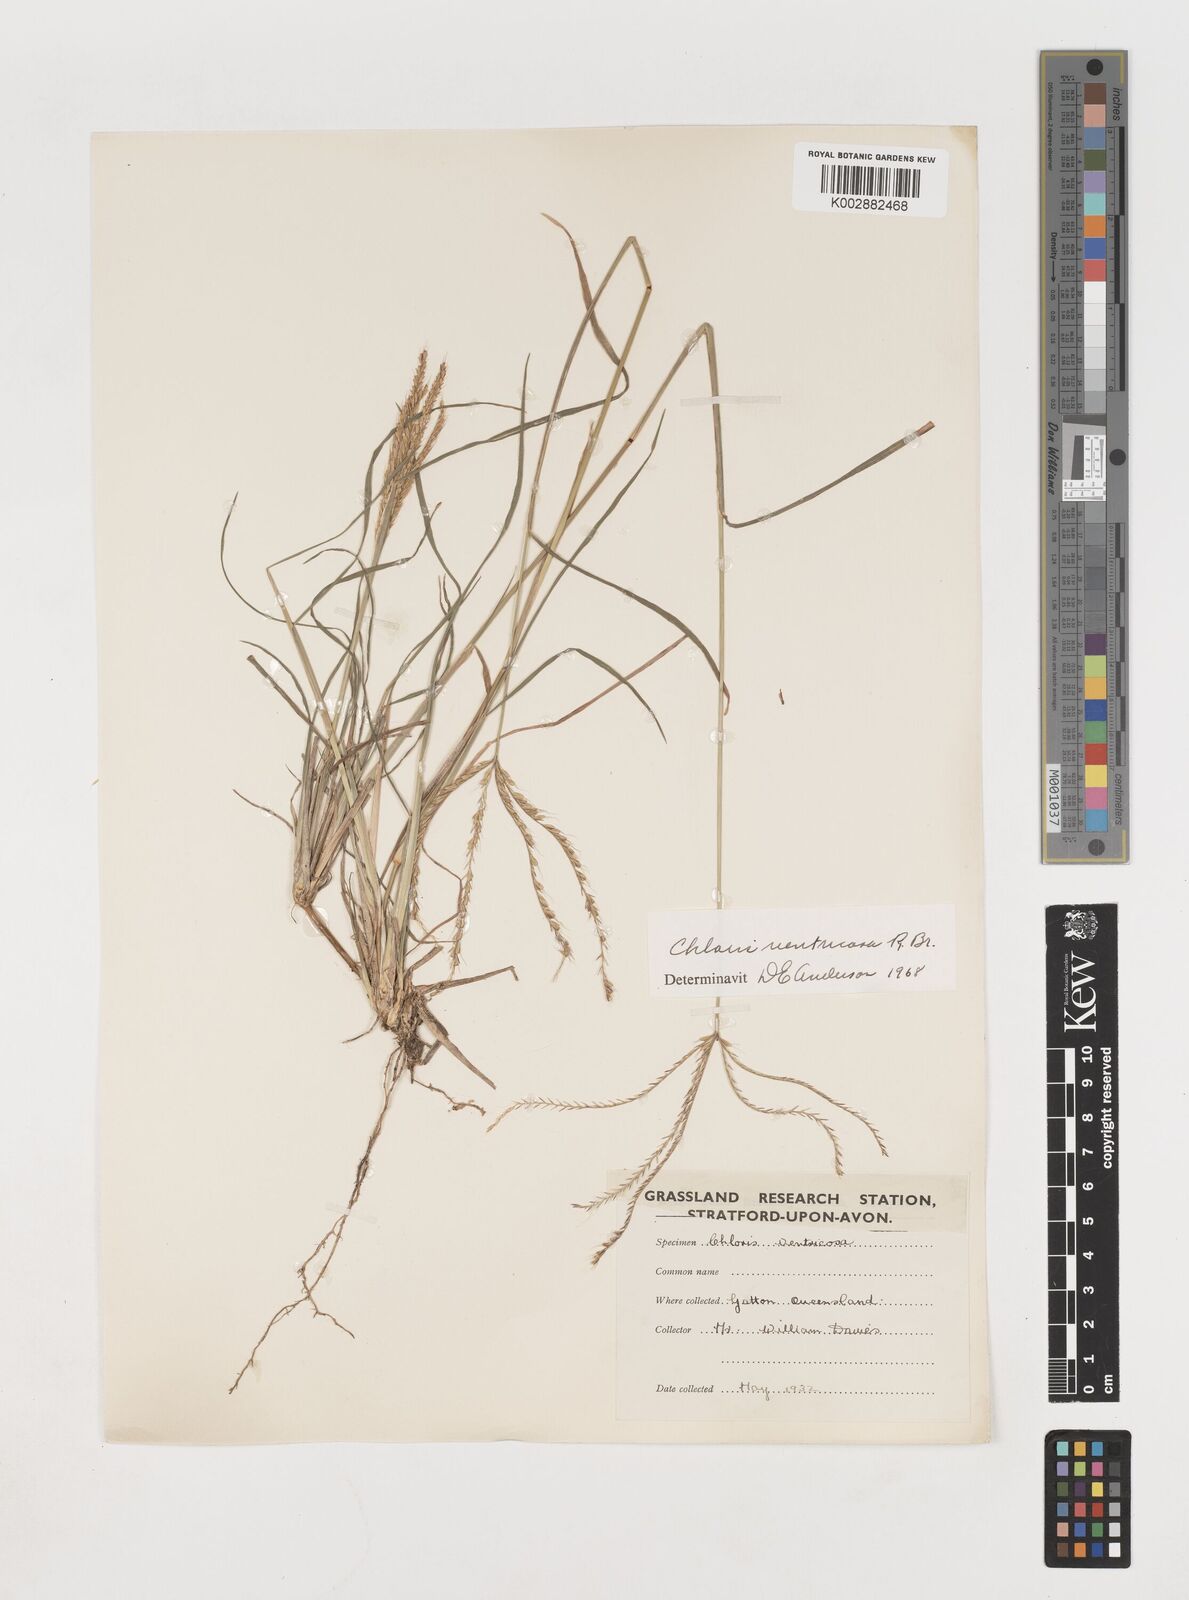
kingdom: Plantae
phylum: Tracheophyta
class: Liliopsida
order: Poales
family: Poaceae
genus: Chloris
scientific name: Chloris ventricosa
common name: Australian windmill grass
